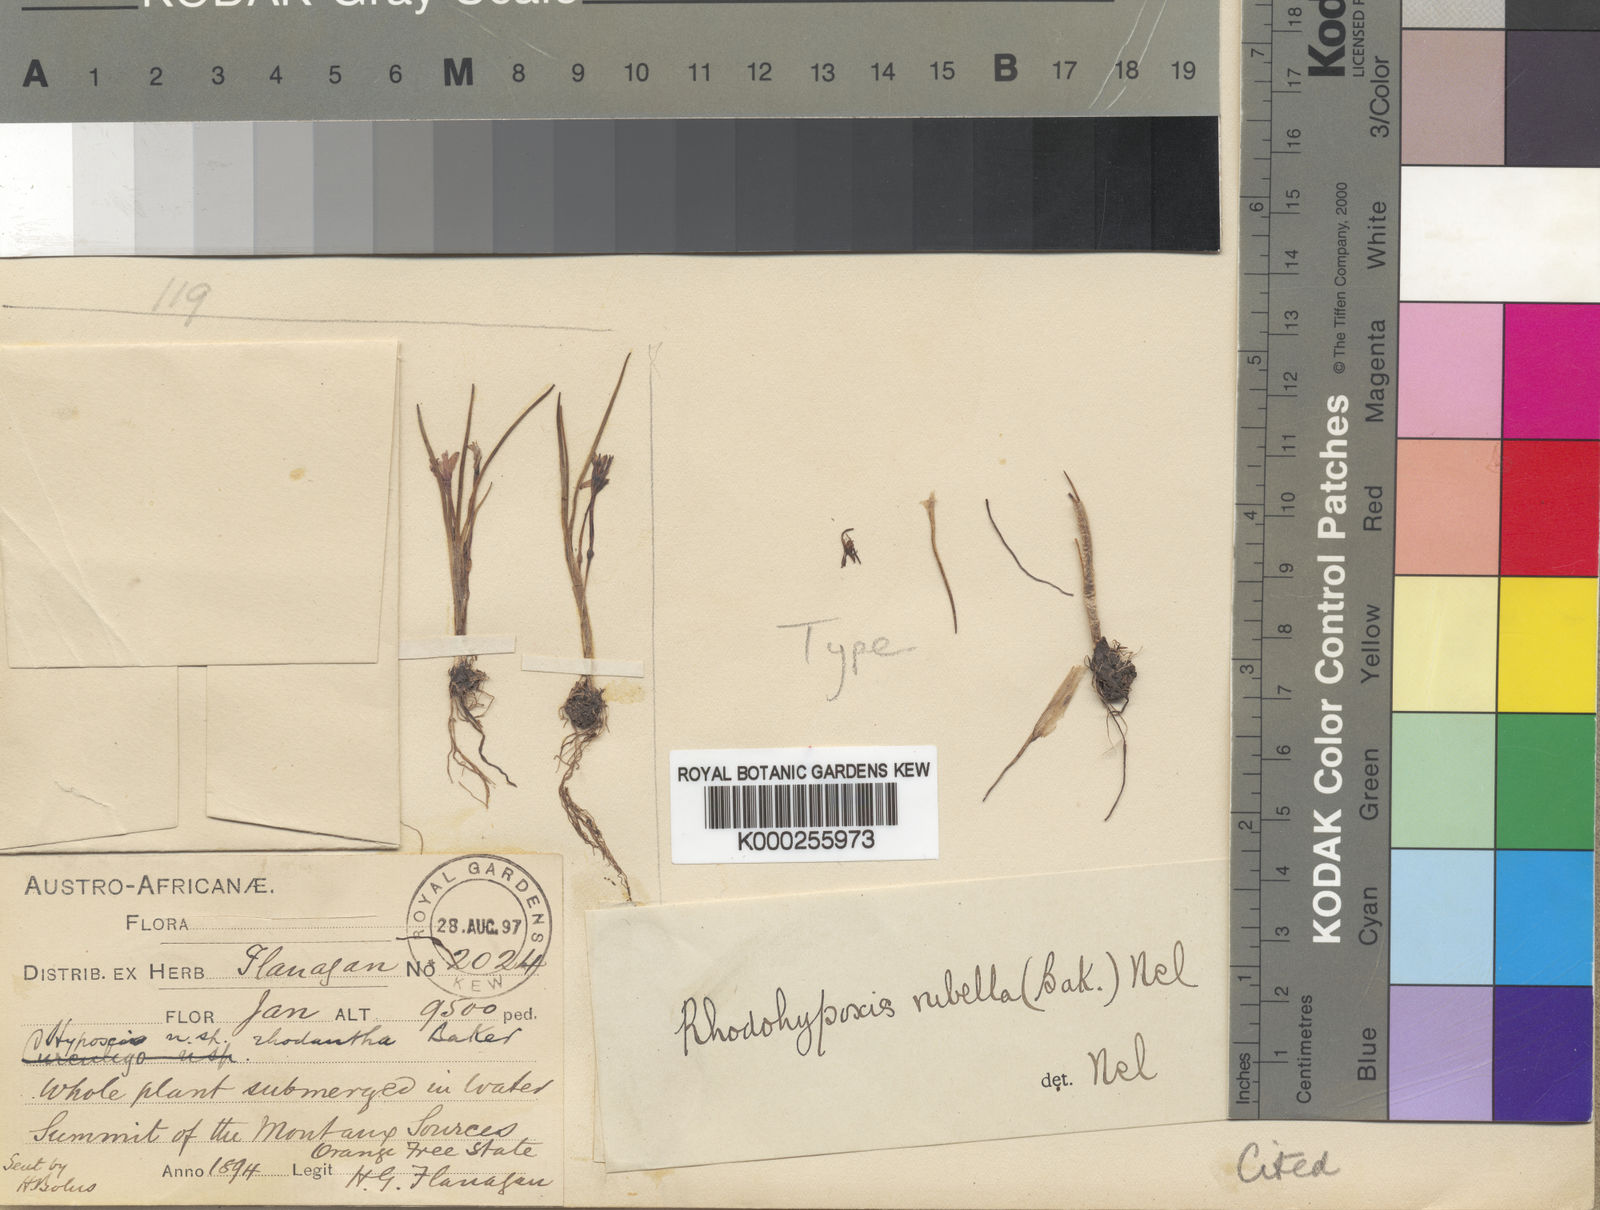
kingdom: Plantae
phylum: Tracheophyta
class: Liliopsida
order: Asparagales
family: Hypoxidaceae
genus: Hypoxis
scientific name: Hypoxis rubella
